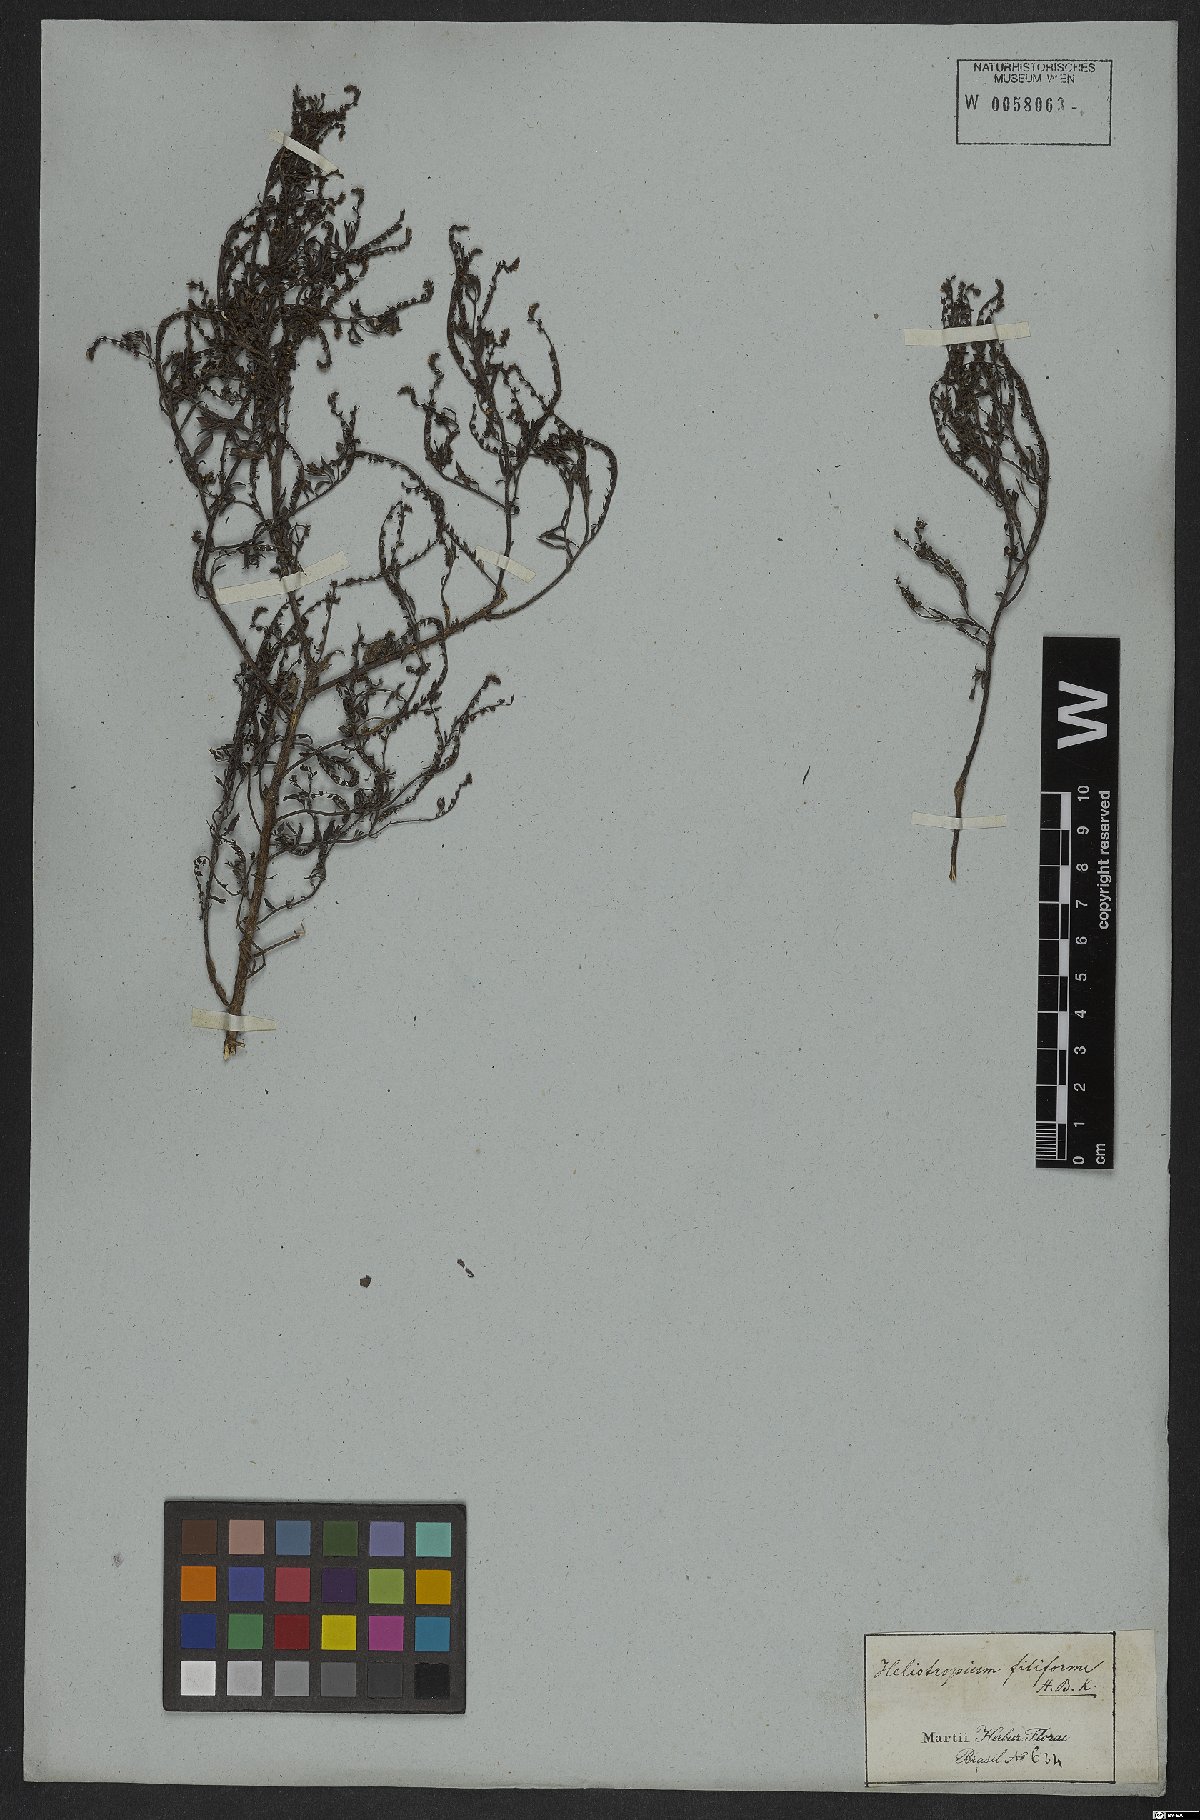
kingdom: Plantae
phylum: Tracheophyta
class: Magnoliopsida
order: Boraginales
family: Heliotropiaceae
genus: Euploca
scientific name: Euploca filiformis
